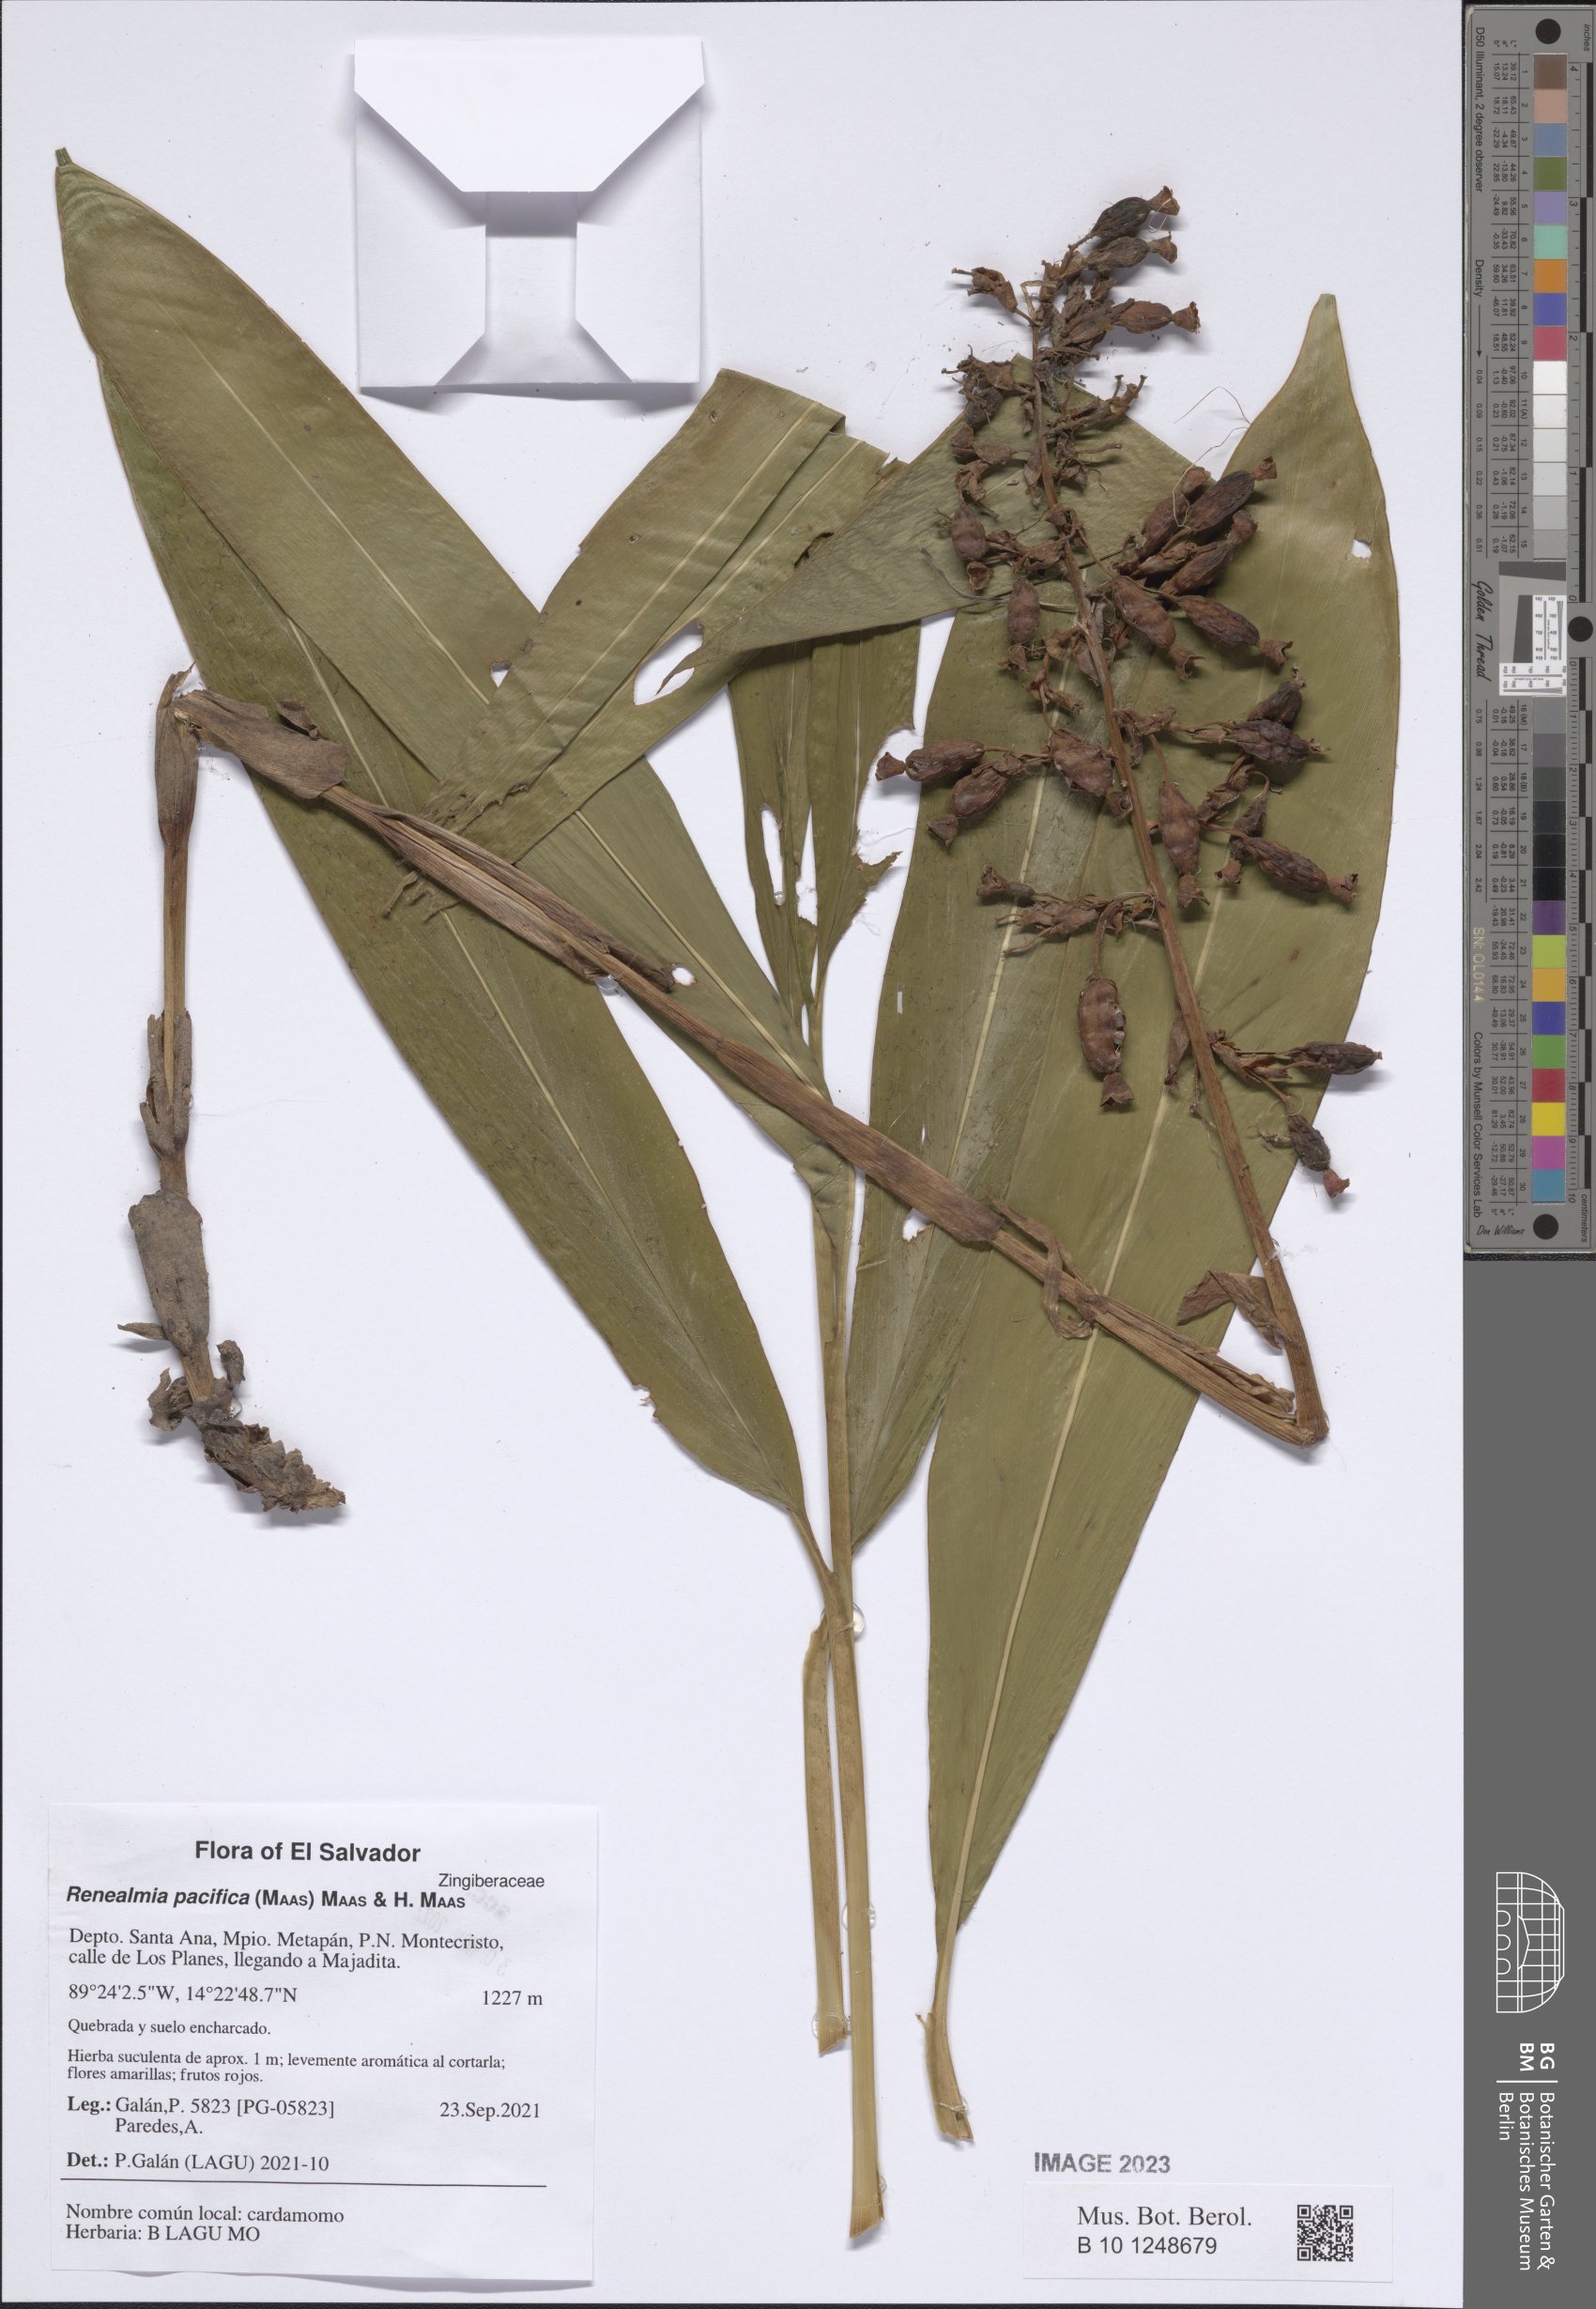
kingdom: Plantae
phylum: Tracheophyta
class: Liliopsida
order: Zingiberales
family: Zingiberaceae
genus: Renealmia
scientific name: Renealmia pacifica
